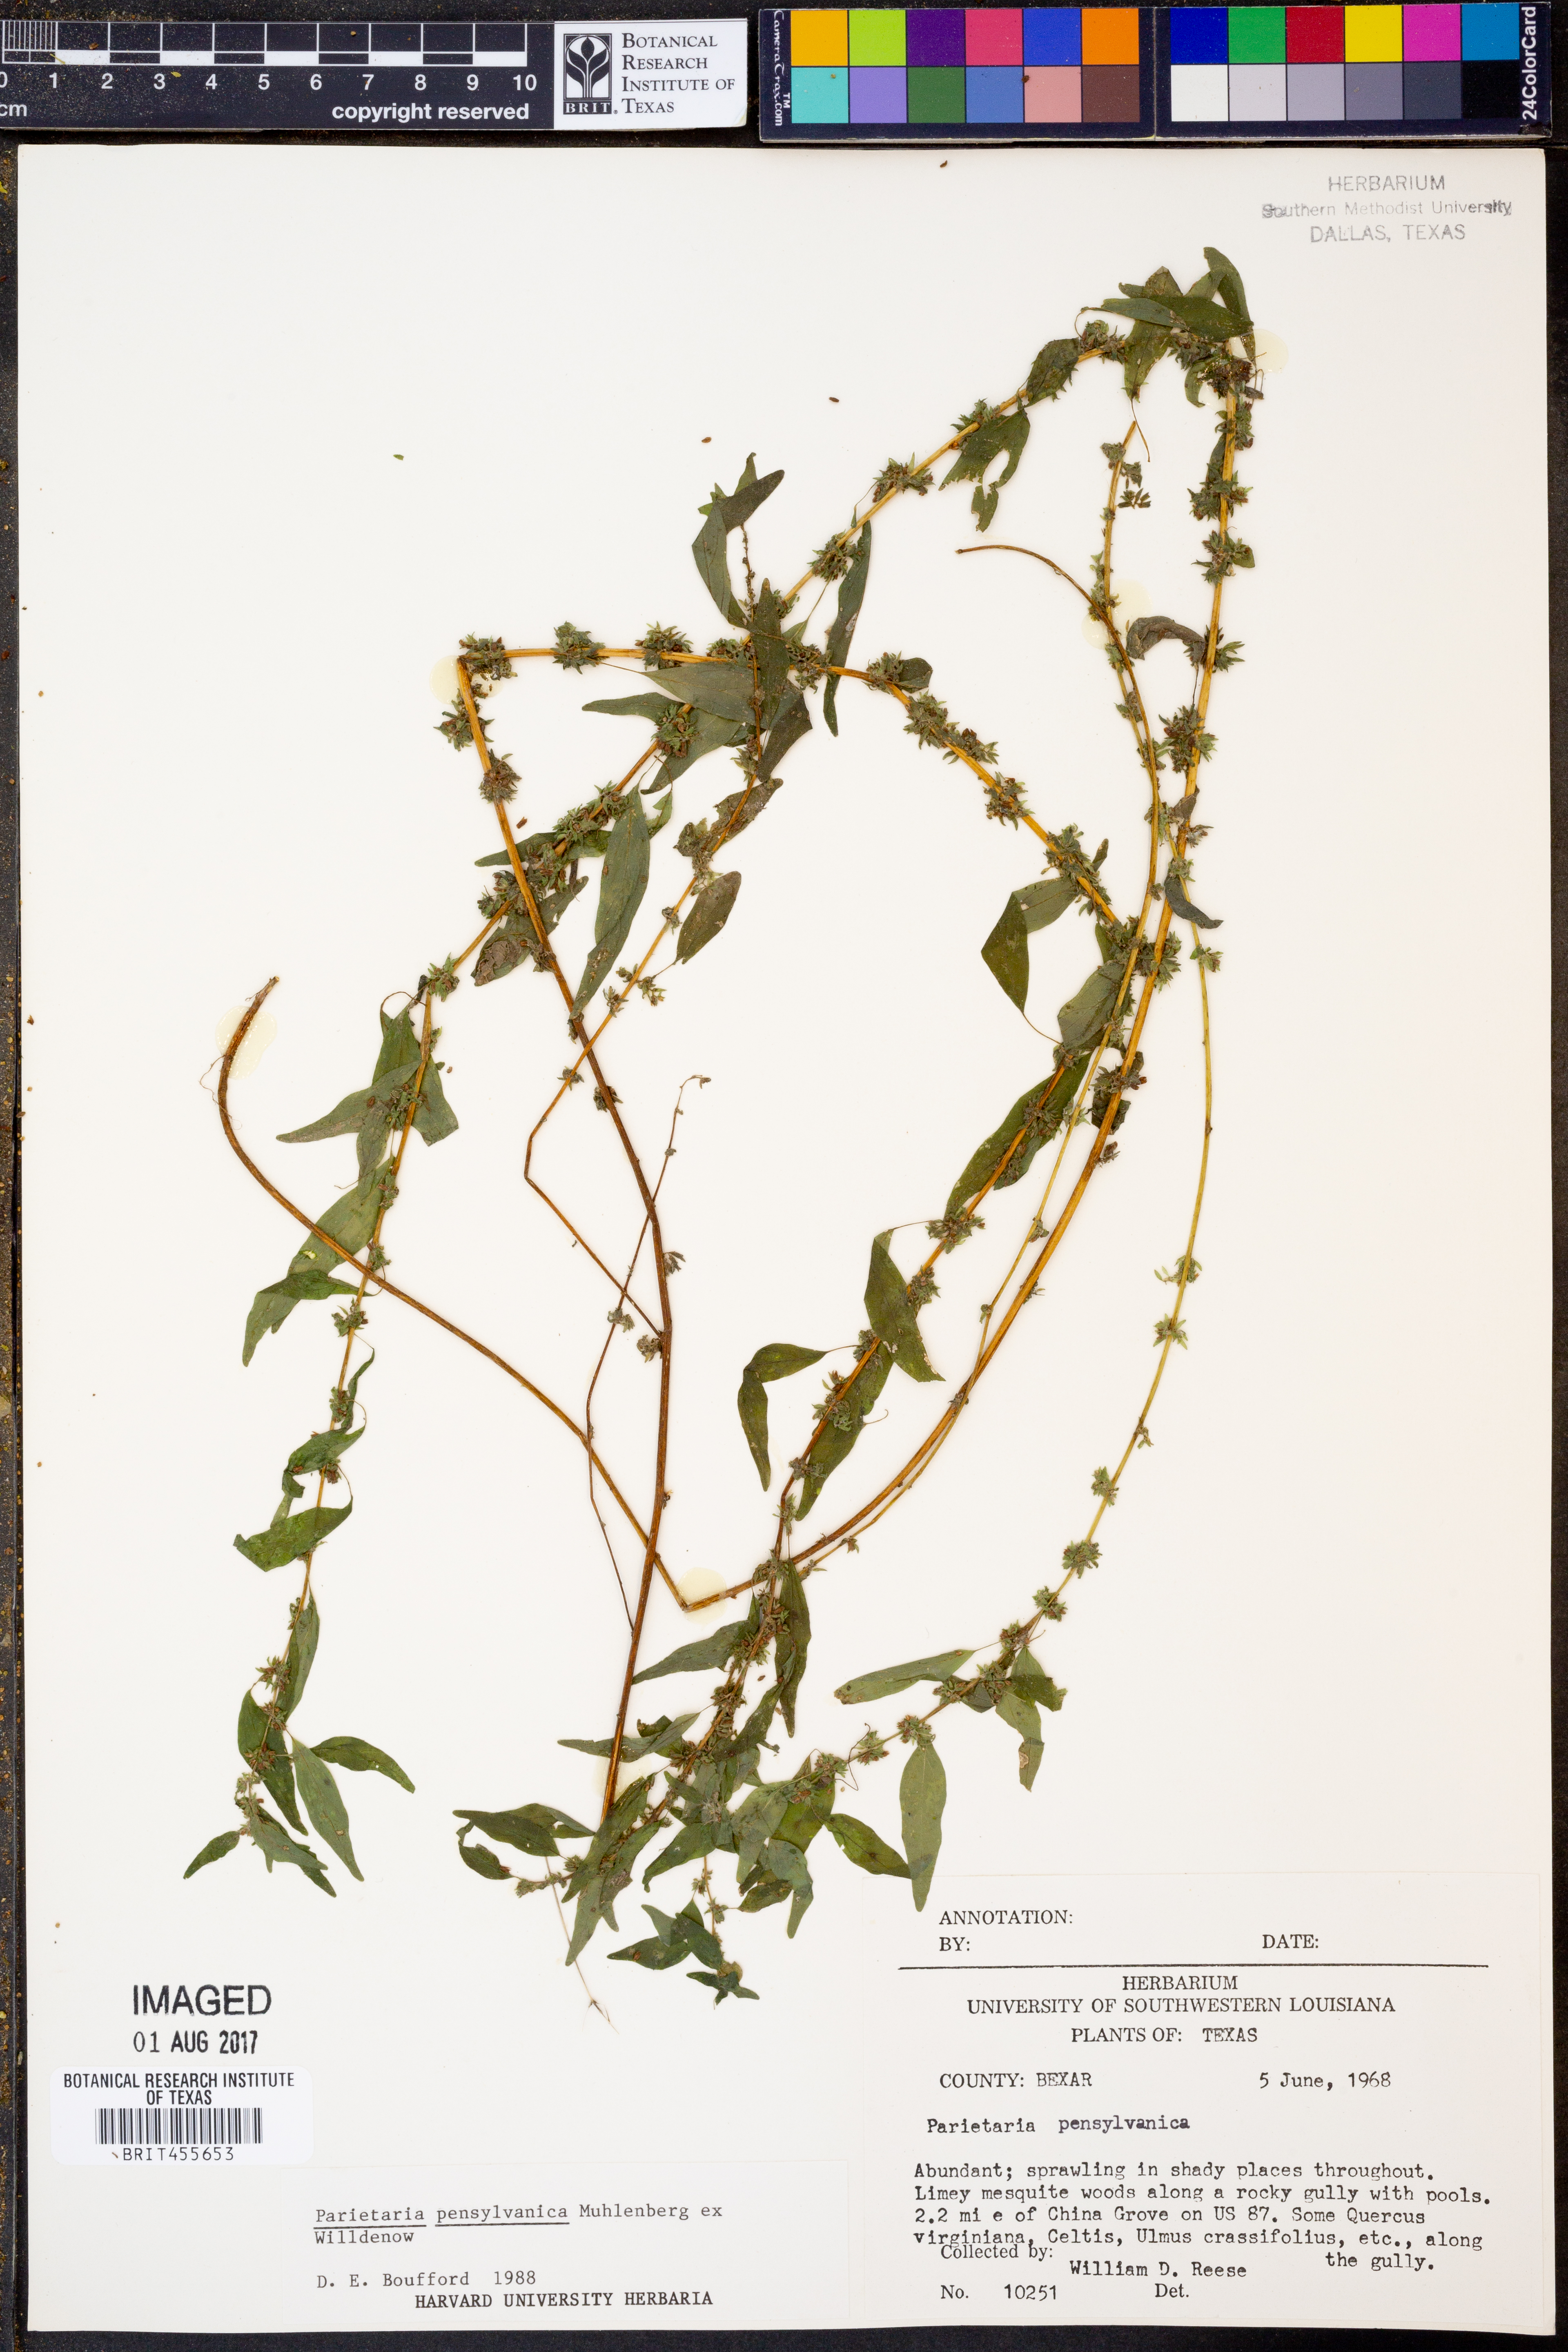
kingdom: Plantae
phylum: Tracheophyta
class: Magnoliopsida
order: Rosales
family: Urticaceae
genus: Parietaria
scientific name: Parietaria pensylvanica
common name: Pennsylvania pellitory
